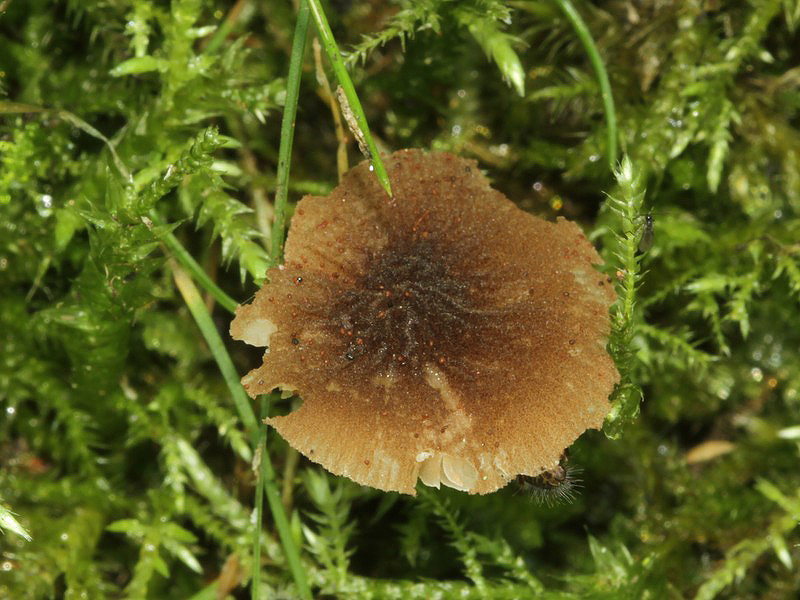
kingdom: Fungi
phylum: Basidiomycota
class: Agaricomycetes
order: Agaricales
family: Pluteaceae
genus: Pluteus
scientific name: Pluteus podospileus
